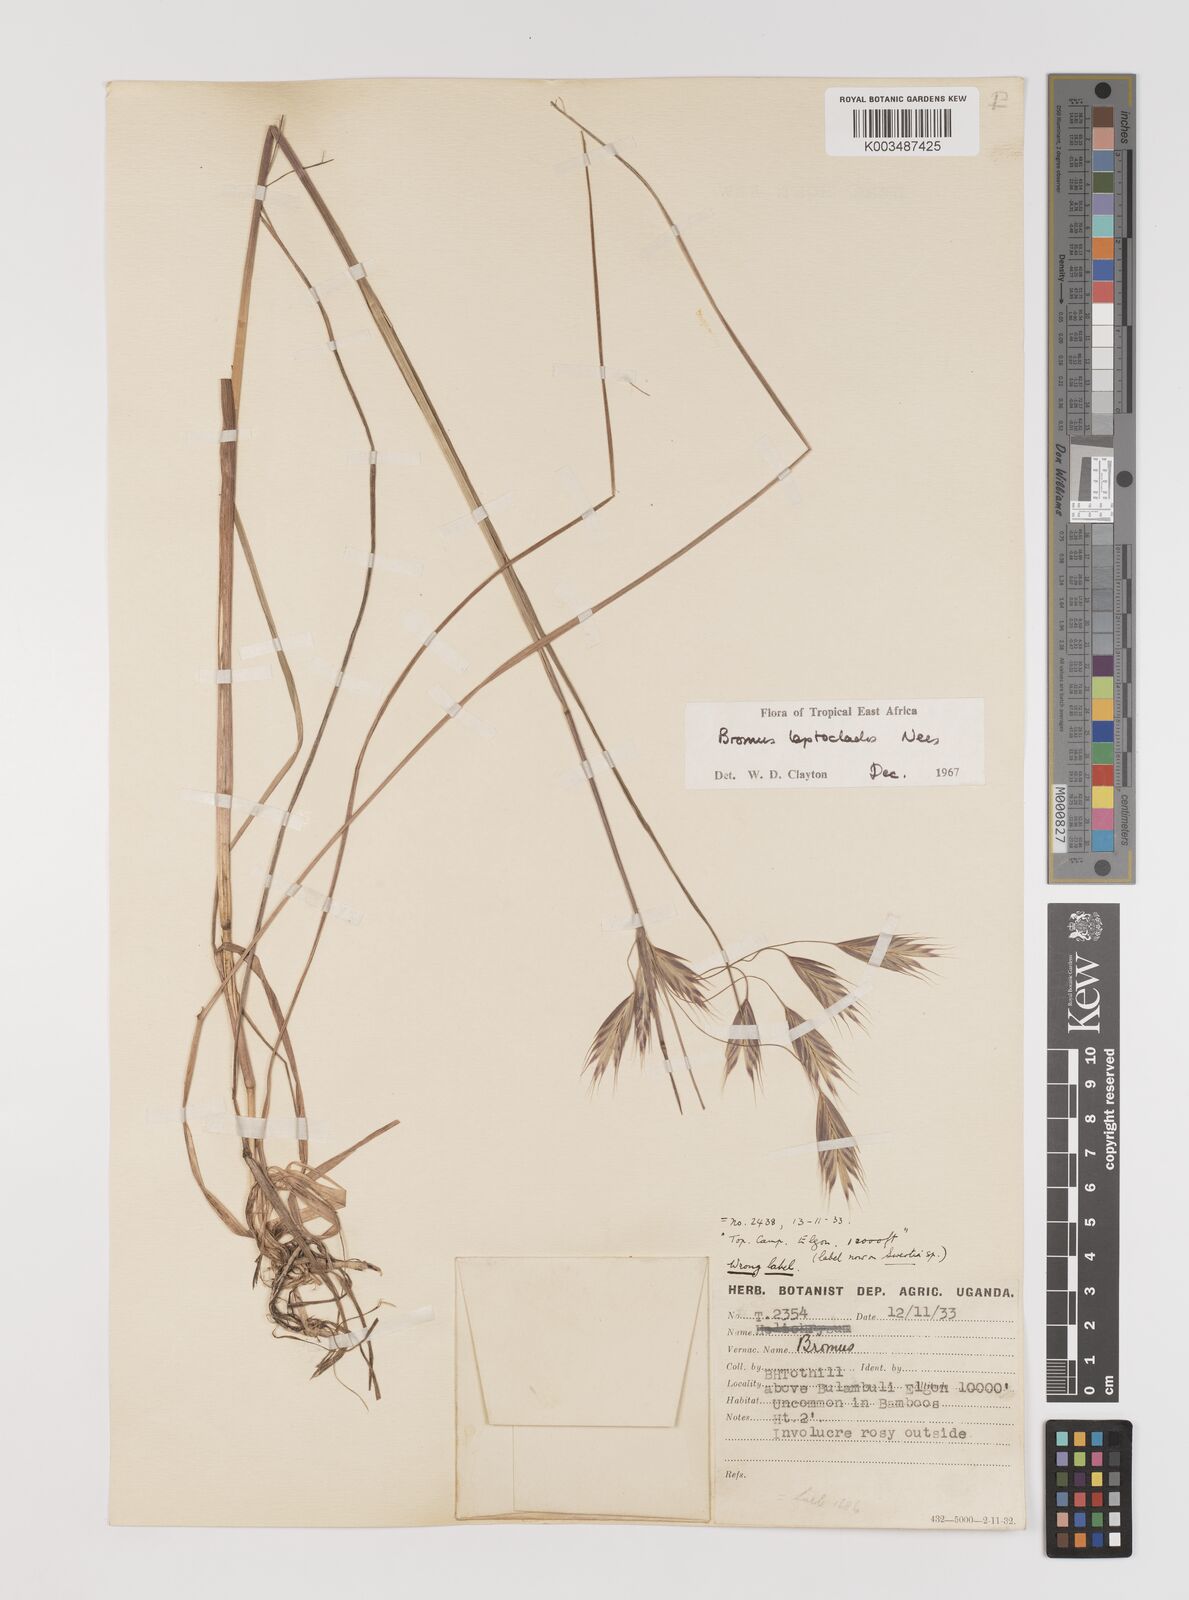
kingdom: Plantae
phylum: Tracheophyta
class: Liliopsida
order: Poales
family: Poaceae
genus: Bromus
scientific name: Bromus leptoclados
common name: Mountain bromegrass
